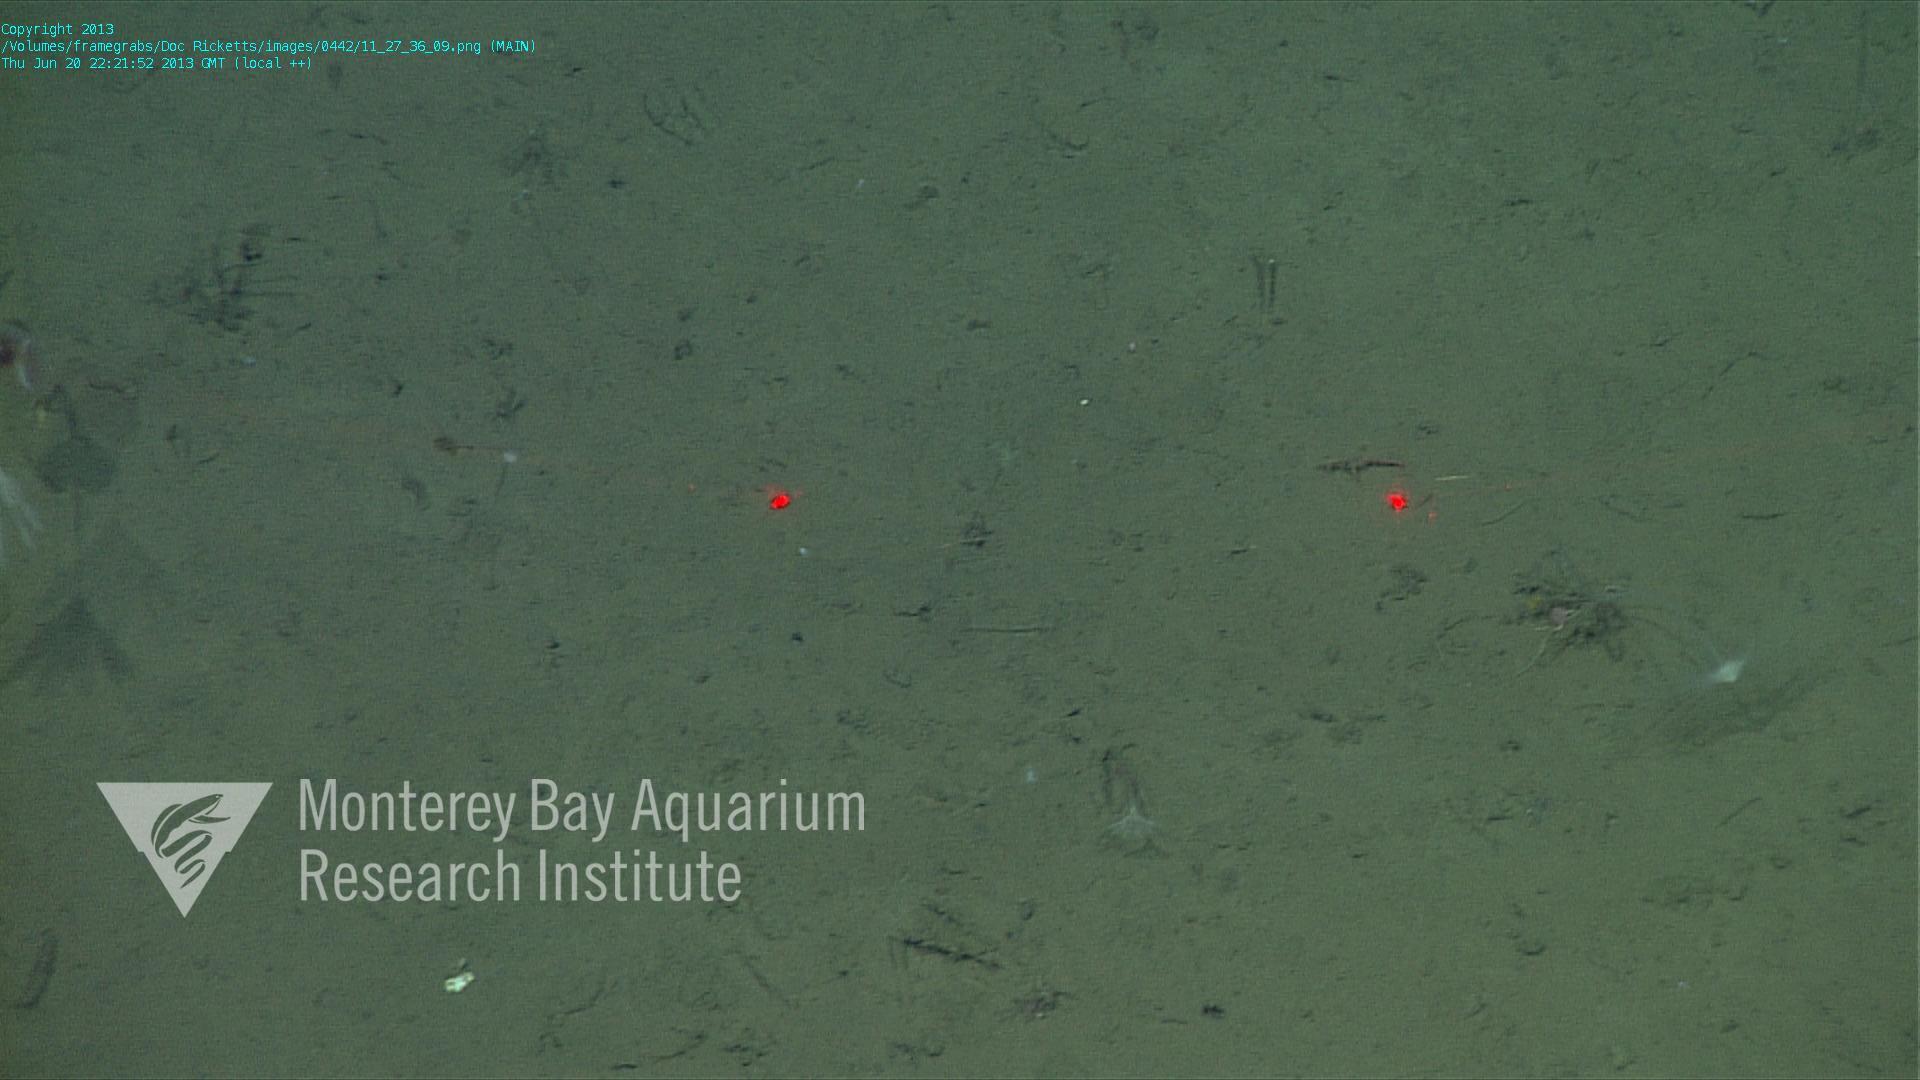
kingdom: Animalia
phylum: Porifera
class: Demospongiae
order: Poecilosclerida
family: Cladorhizidae
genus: Cladorhiza
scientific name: Cladorhiza
